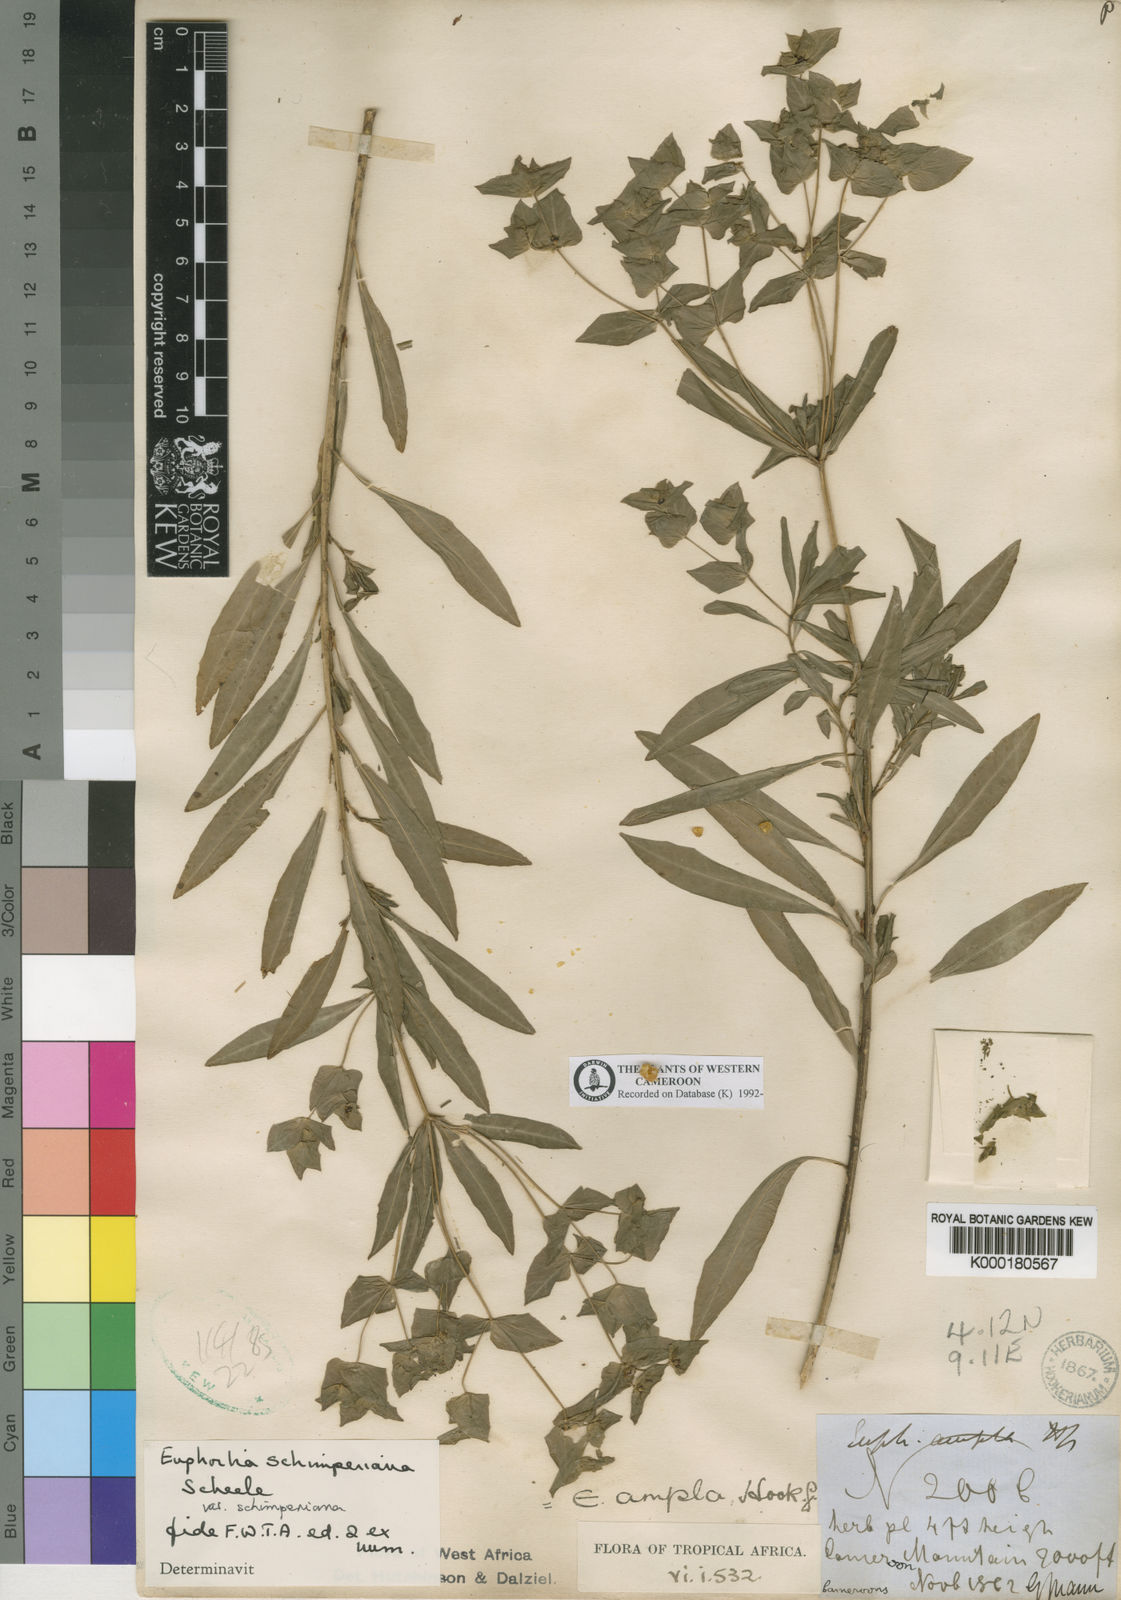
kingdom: Plantae
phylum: Tracheophyta
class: Magnoliopsida
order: Malpighiales
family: Euphorbiaceae
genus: Euphorbia
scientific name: Euphorbia schimperiana
